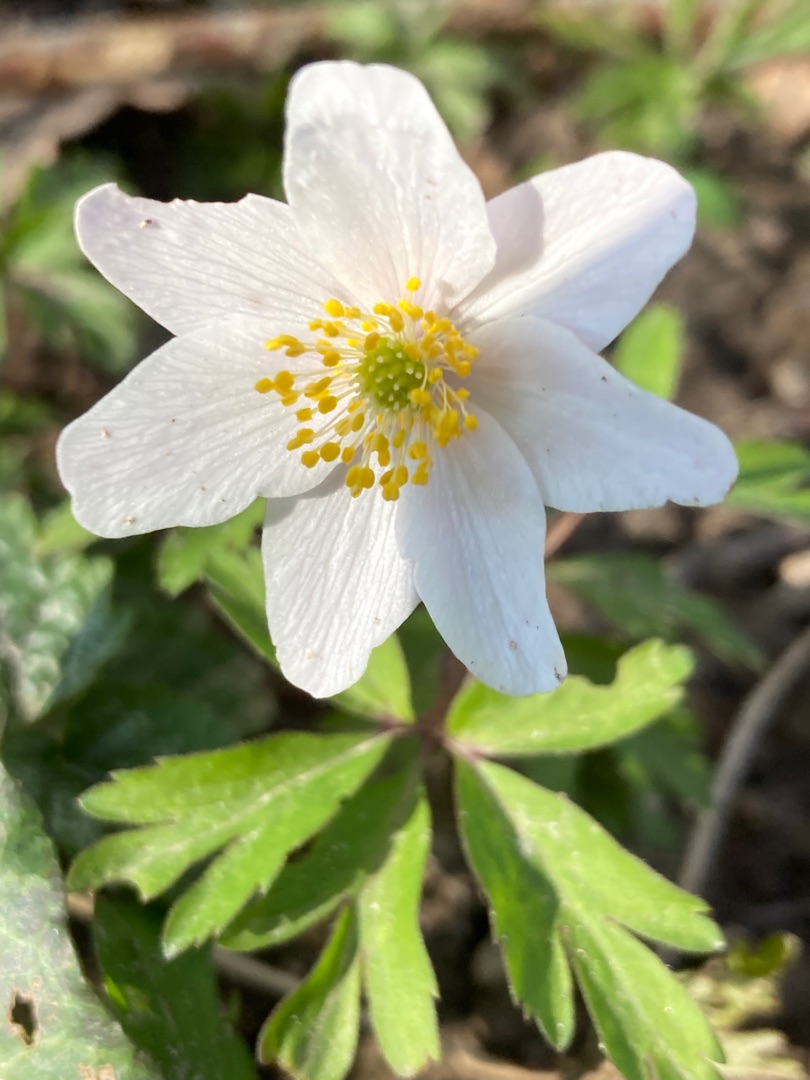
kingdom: Plantae
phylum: Tracheophyta
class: Magnoliopsida
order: Ranunculales
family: Ranunculaceae
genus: Anemone
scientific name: Anemone nemorosa
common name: Hvid anemone
